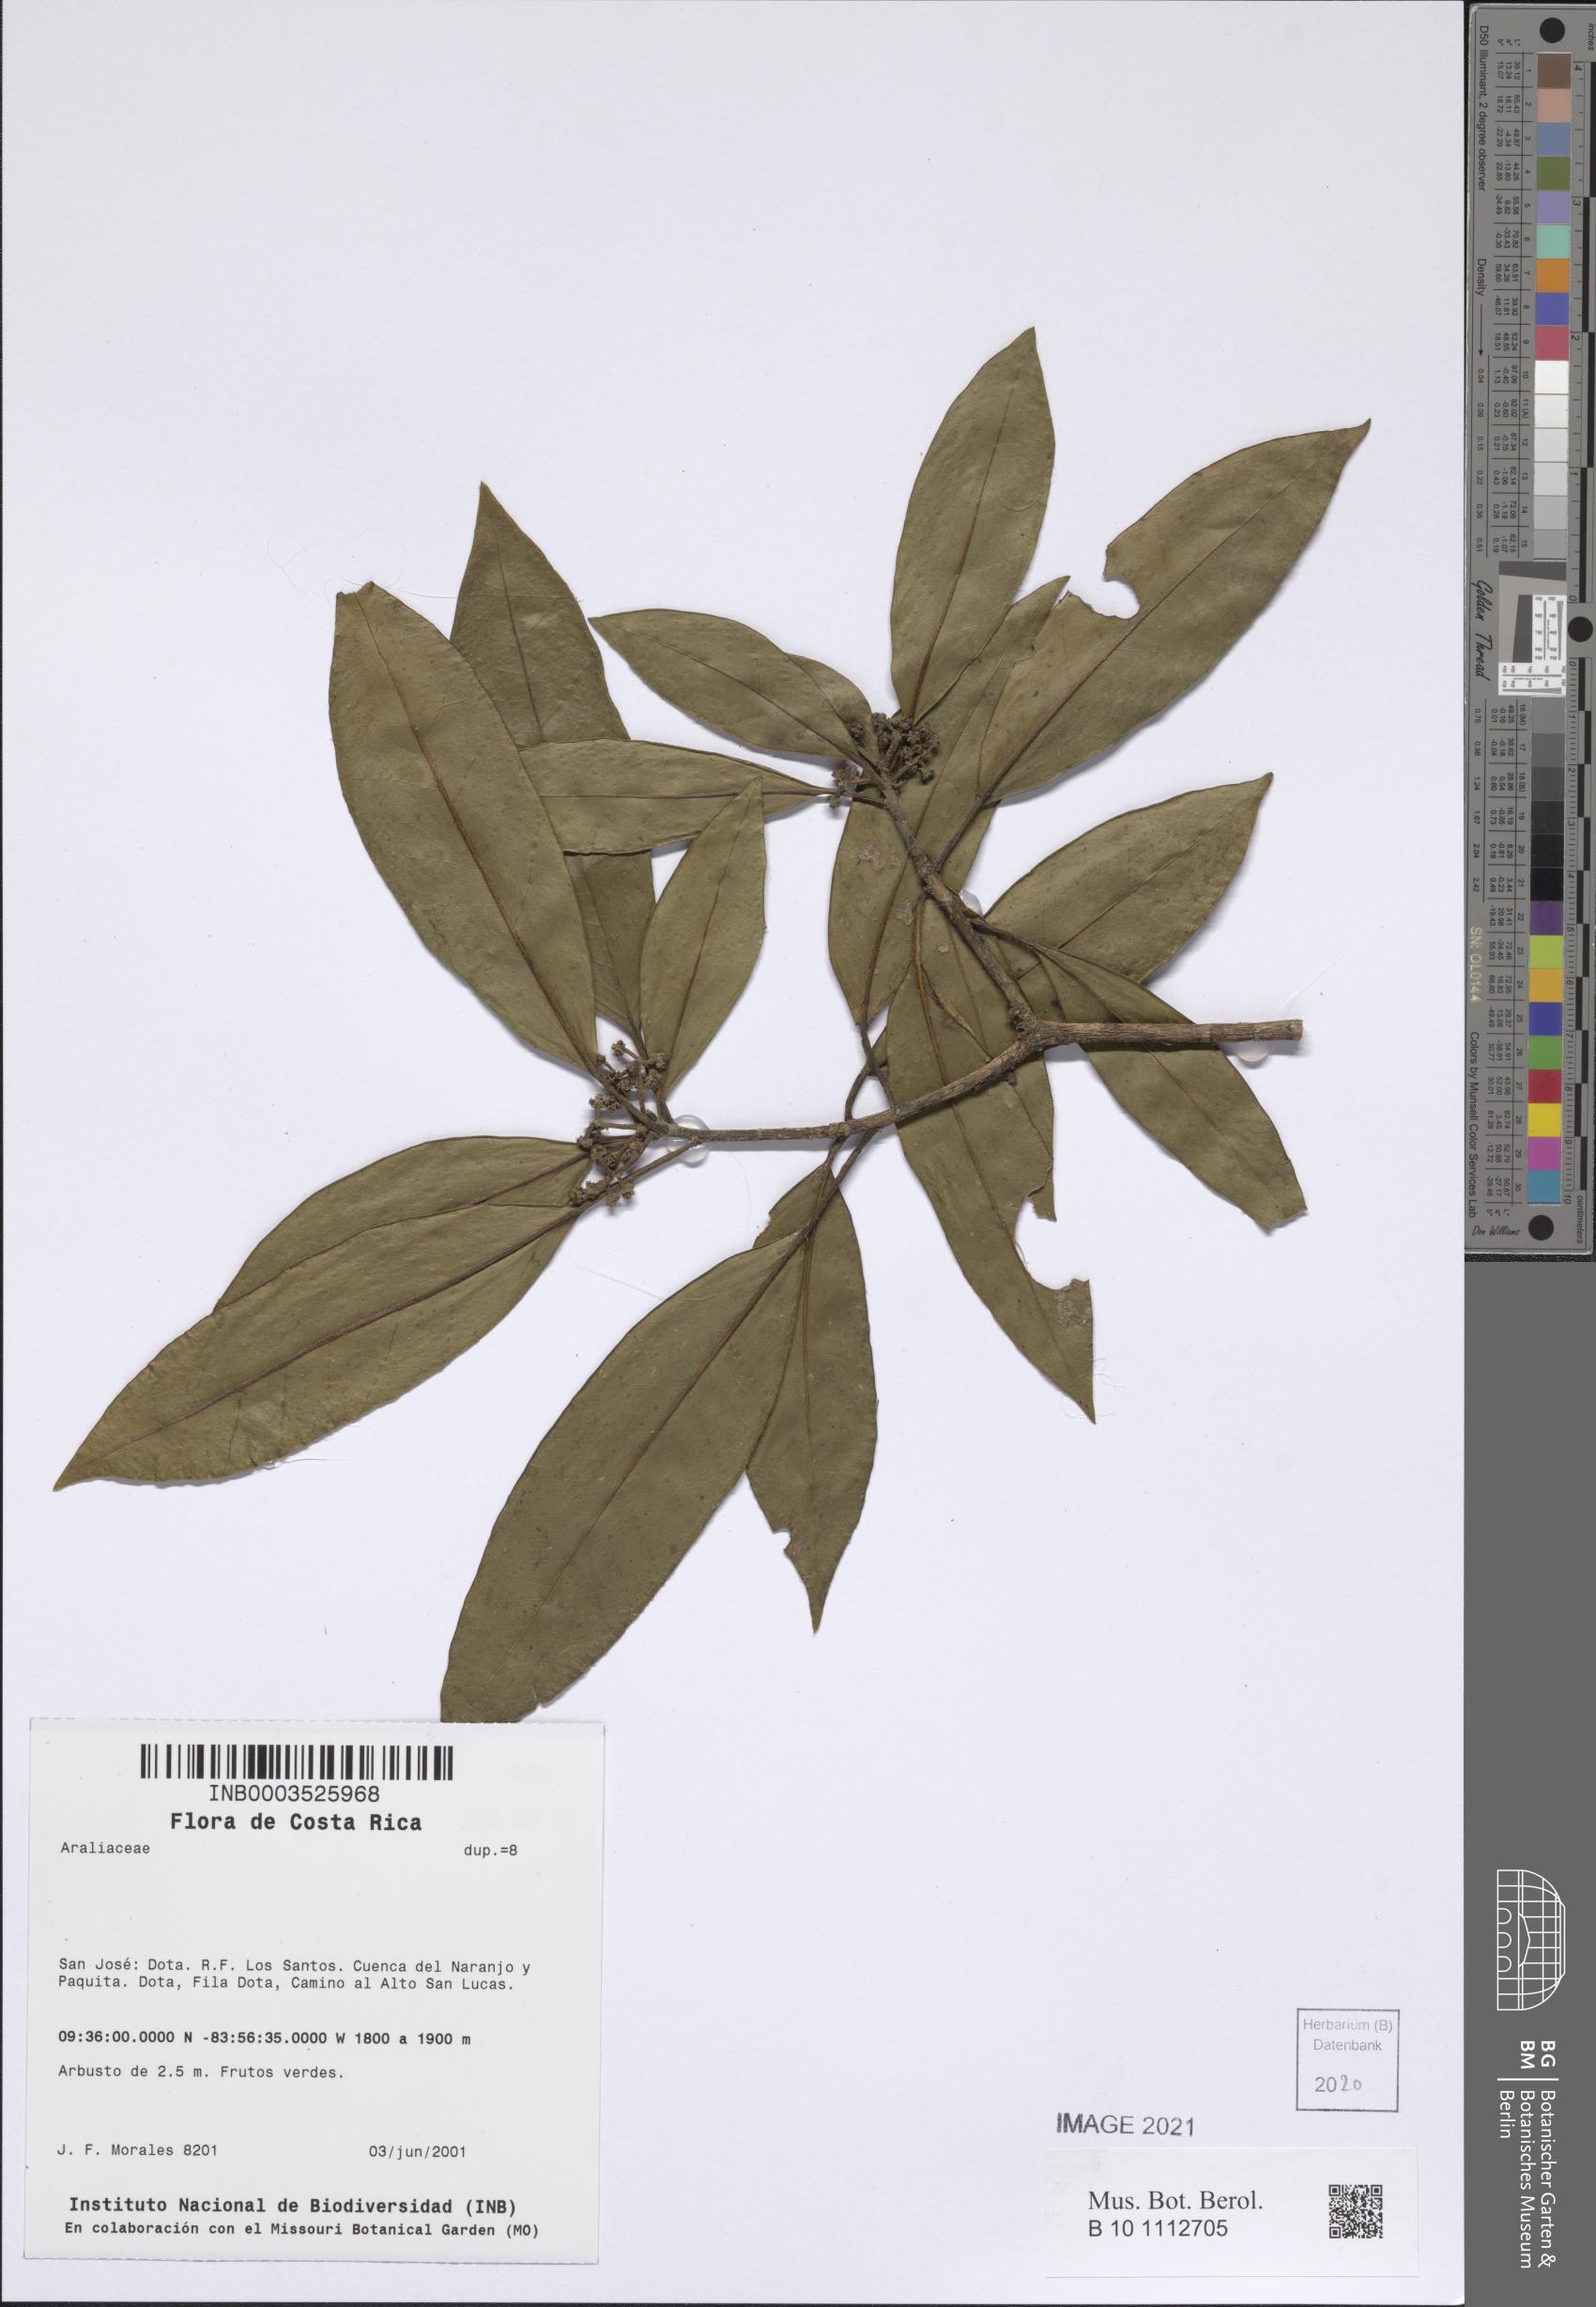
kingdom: Plantae
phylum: Tracheophyta
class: Magnoliopsida
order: Apiales
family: Araliaceae
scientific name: Araliaceae
